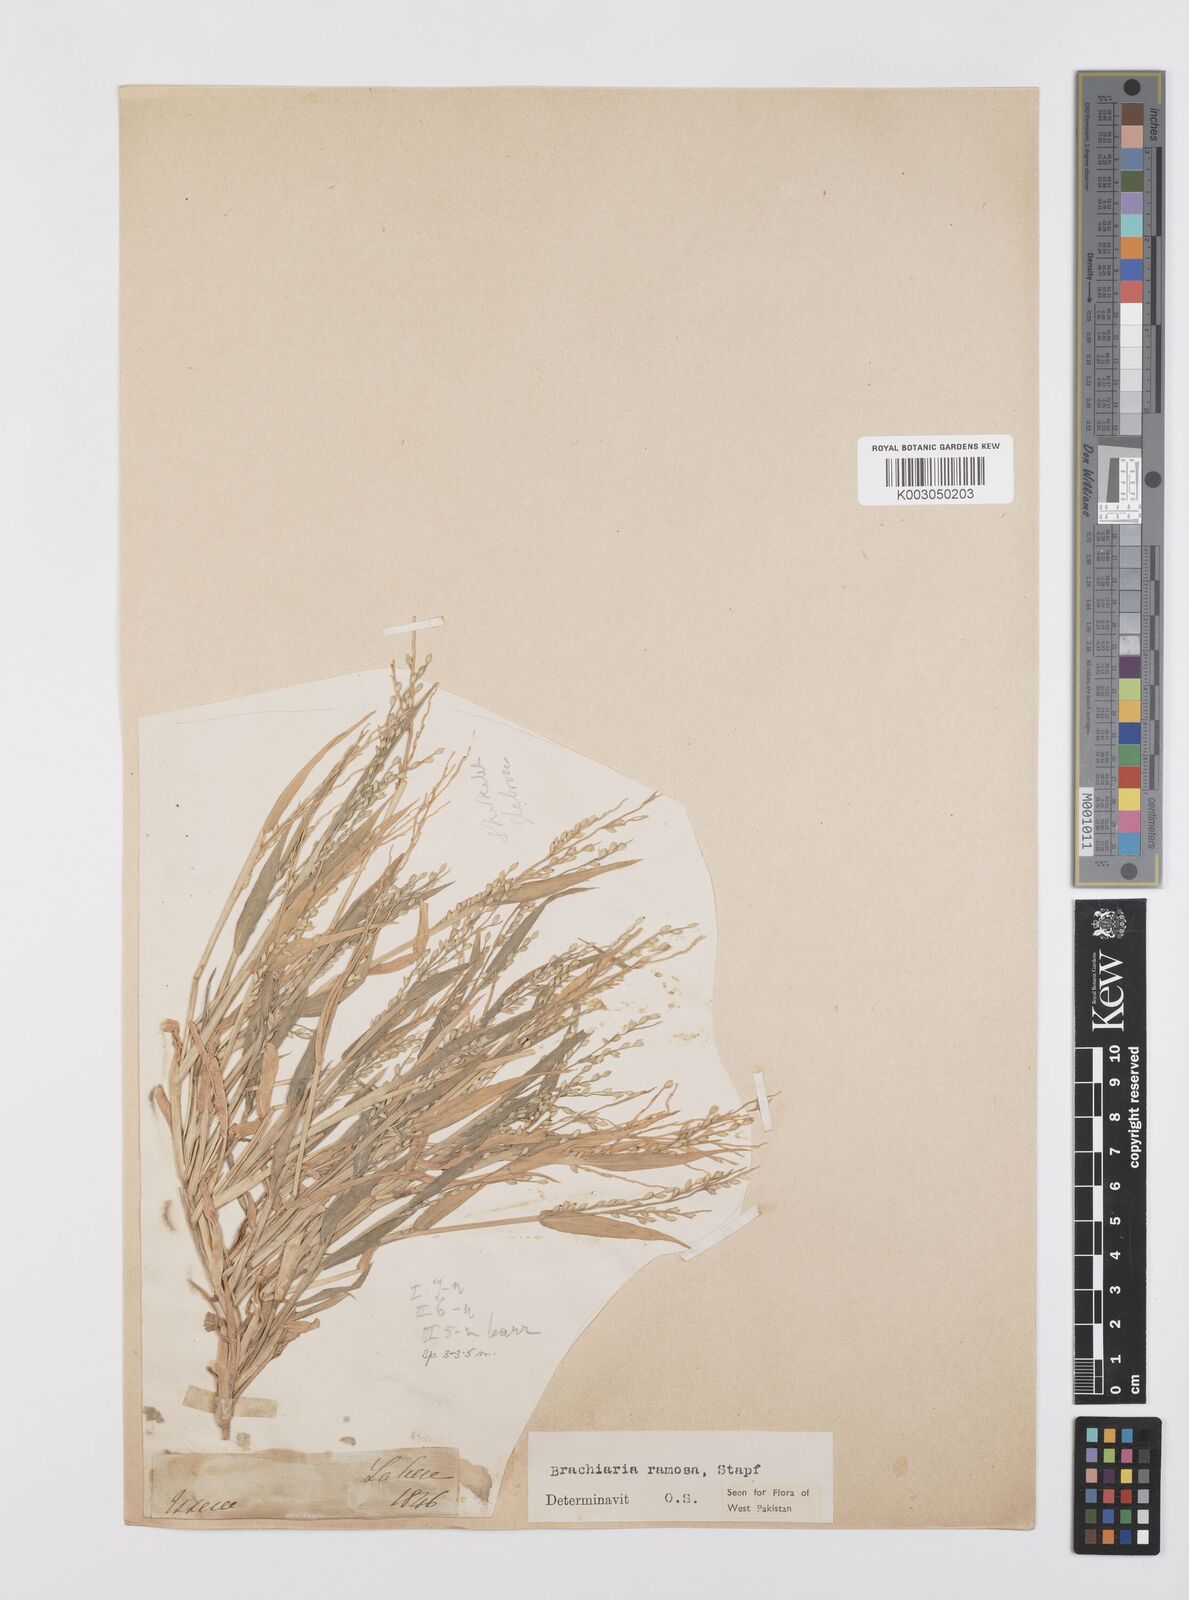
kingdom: Plantae
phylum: Tracheophyta
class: Liliopsida
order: Poales
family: Poaceae
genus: Urochloa
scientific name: Urochloa ramosa
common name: Browntop millet
